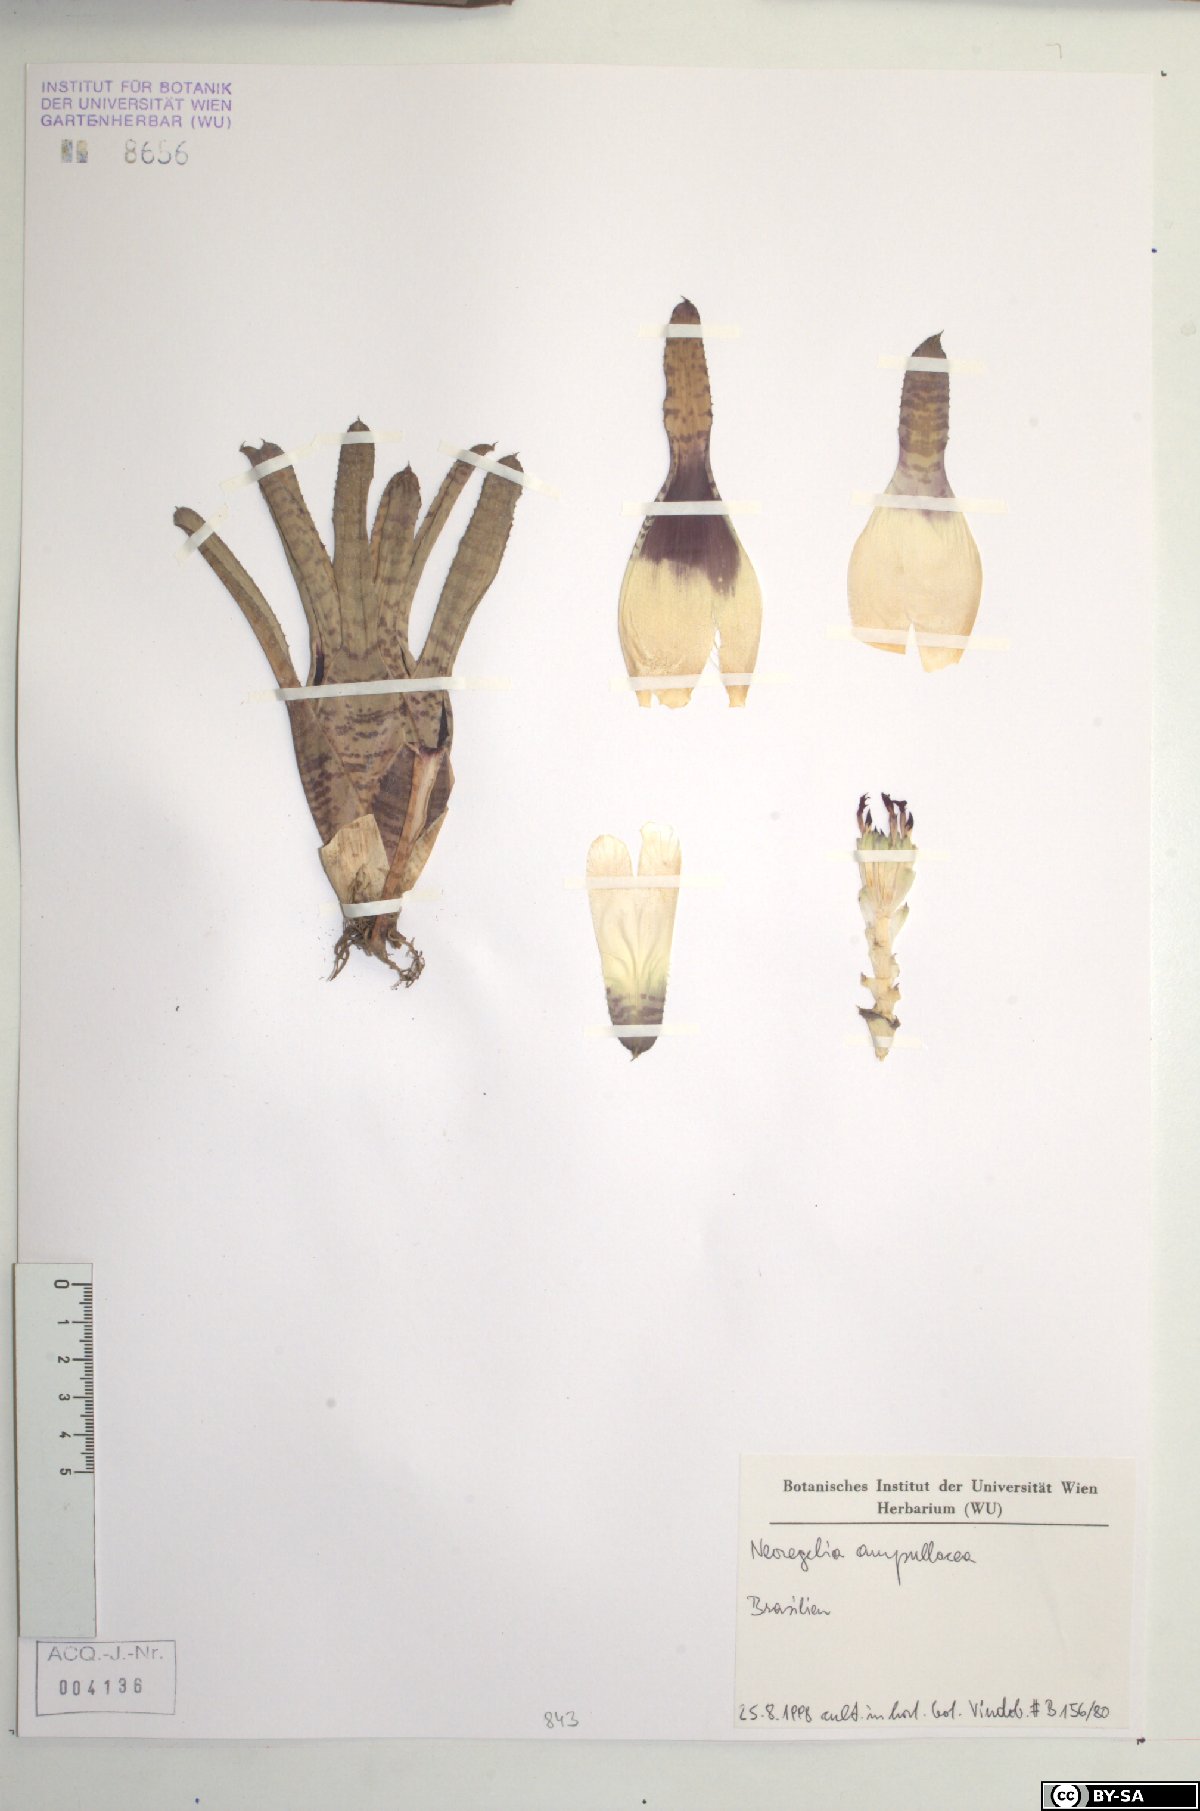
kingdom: Plantae
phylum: Tracheophyta
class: Liliopsida
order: Poales
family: Bromeliaceae
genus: Neoregelia
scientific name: Neoregelia ampullacea
